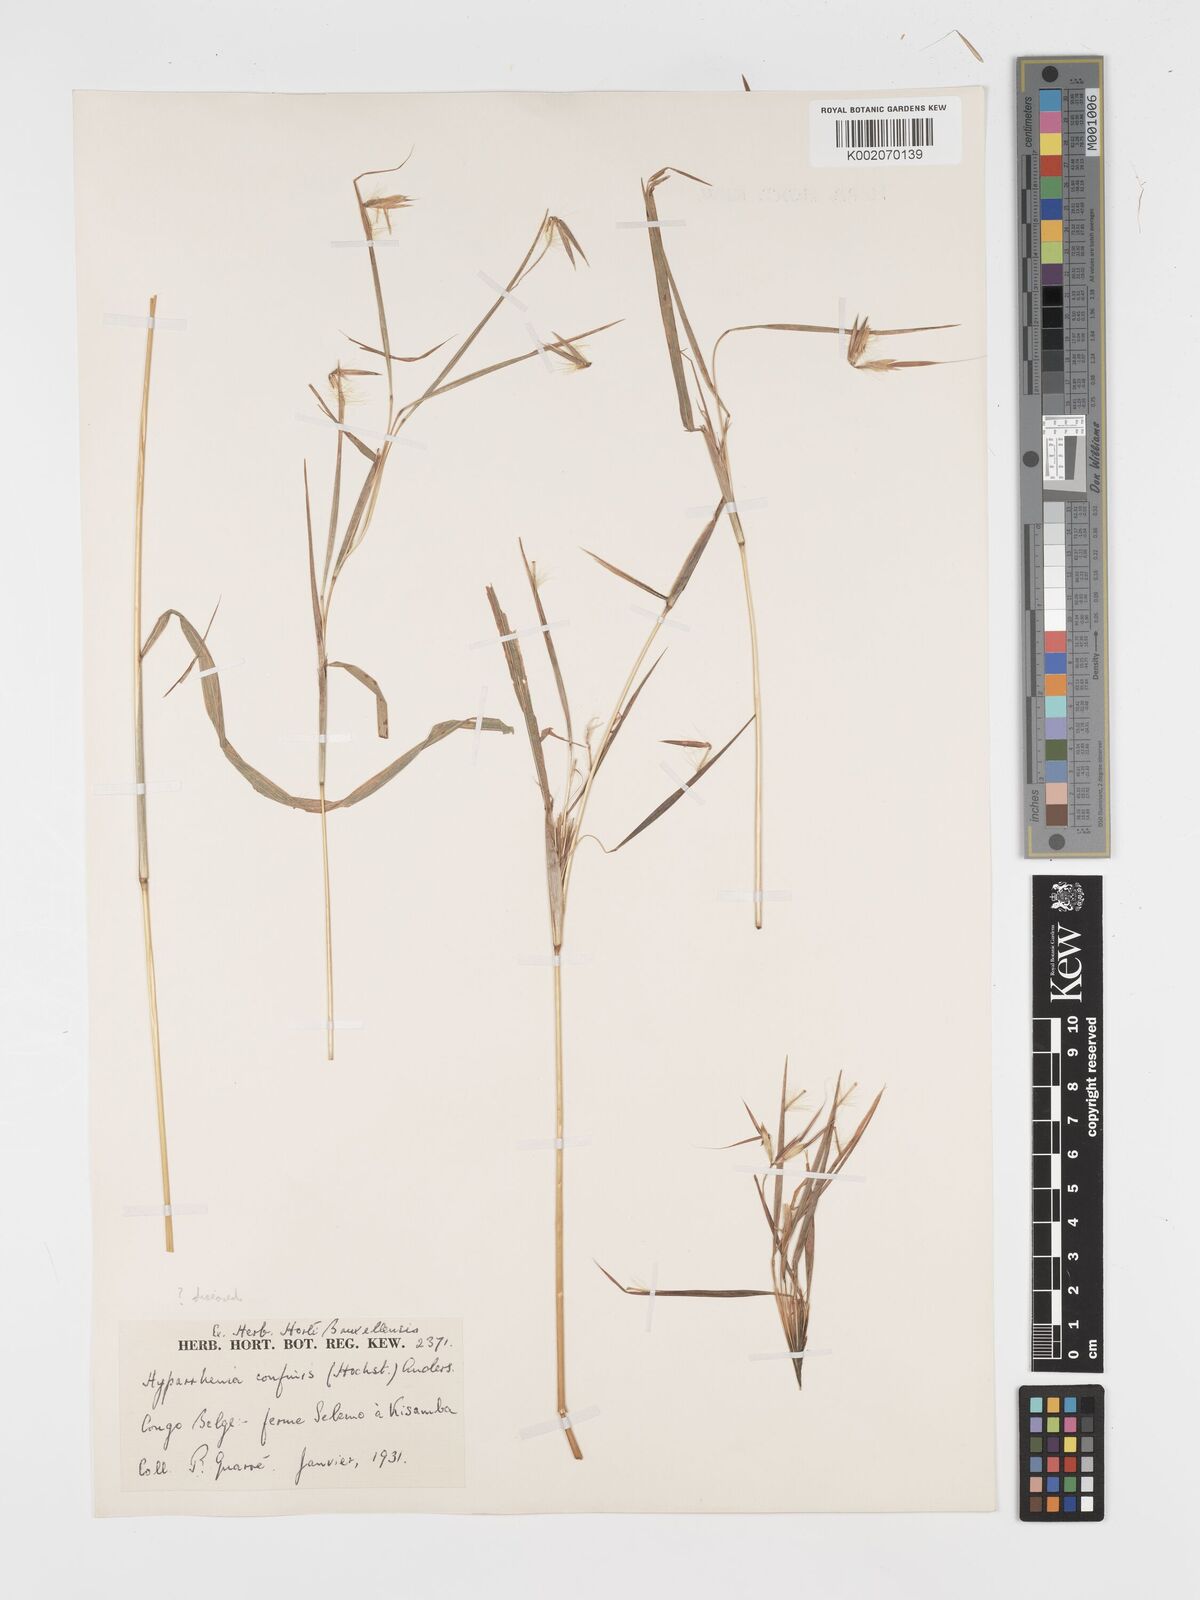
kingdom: Plantae
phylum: Tracheophyta
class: Liliopsida
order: Poales
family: Poaceae
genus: Hyparrhenia
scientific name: Hyparrhenia niariensis
